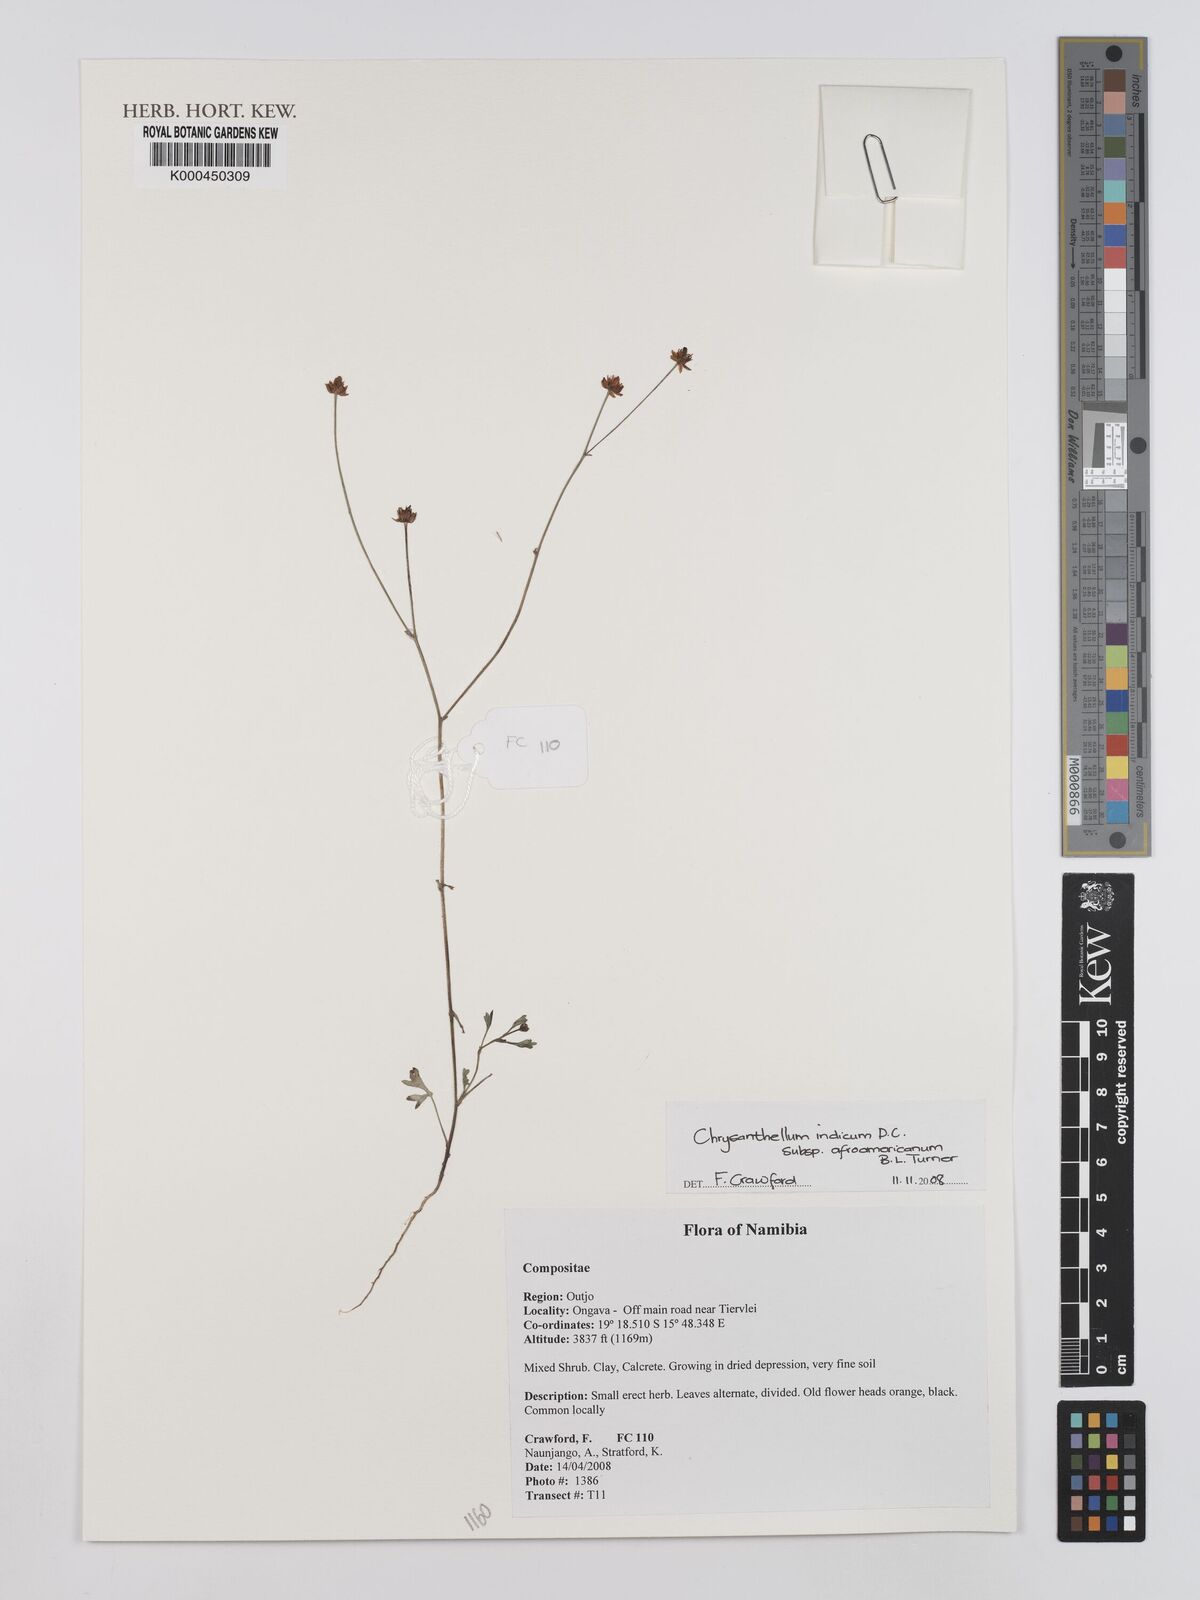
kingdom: Plantae
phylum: Tracheophyta
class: Magnoliopsida
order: Asterales
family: Asteraceae
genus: Chrysanthellum
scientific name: Chrysanthellum indicum
